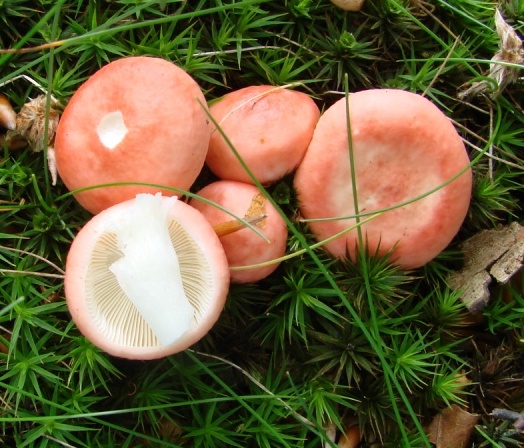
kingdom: Fungi
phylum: Basidiomycota
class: Agaricomycetes
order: Russulales
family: Russulaceae
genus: Russula
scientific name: Russula silvestris
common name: mellemstor gift-skørhat
